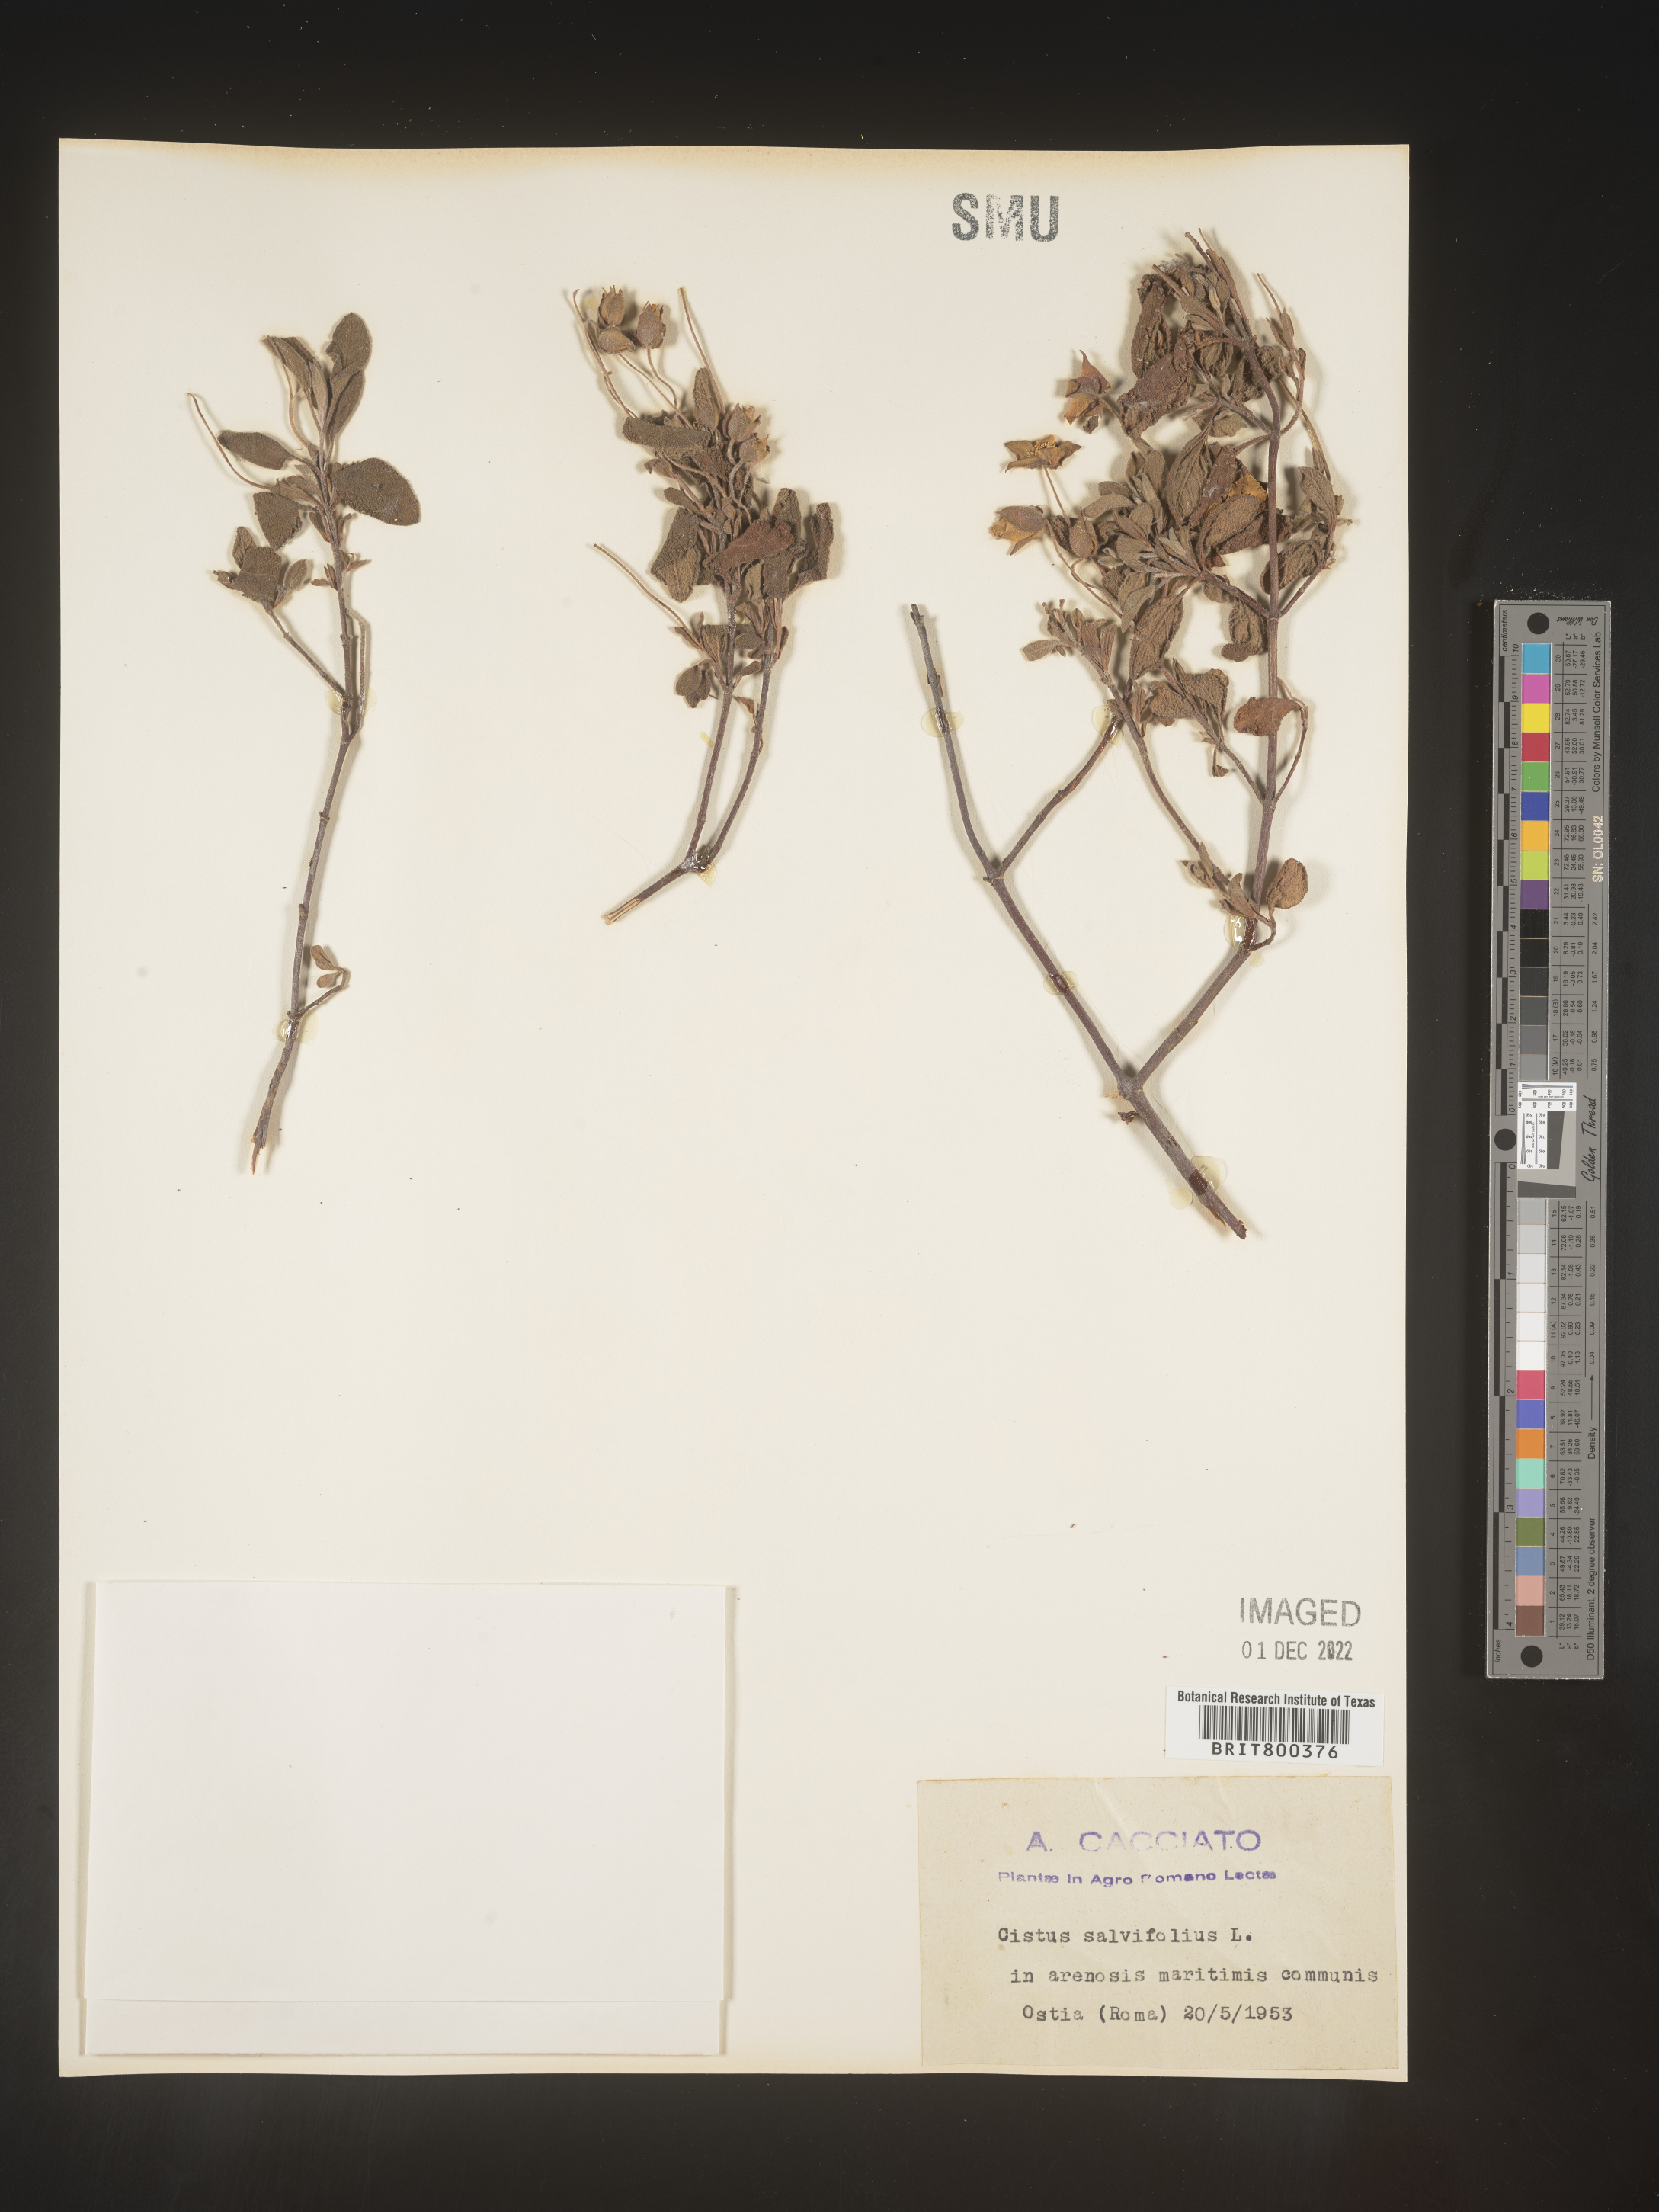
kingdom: Plantae
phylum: Tracheophyta
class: Magnoliopsida
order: Malvales
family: Cistaceae
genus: Cistus
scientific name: Cistus
